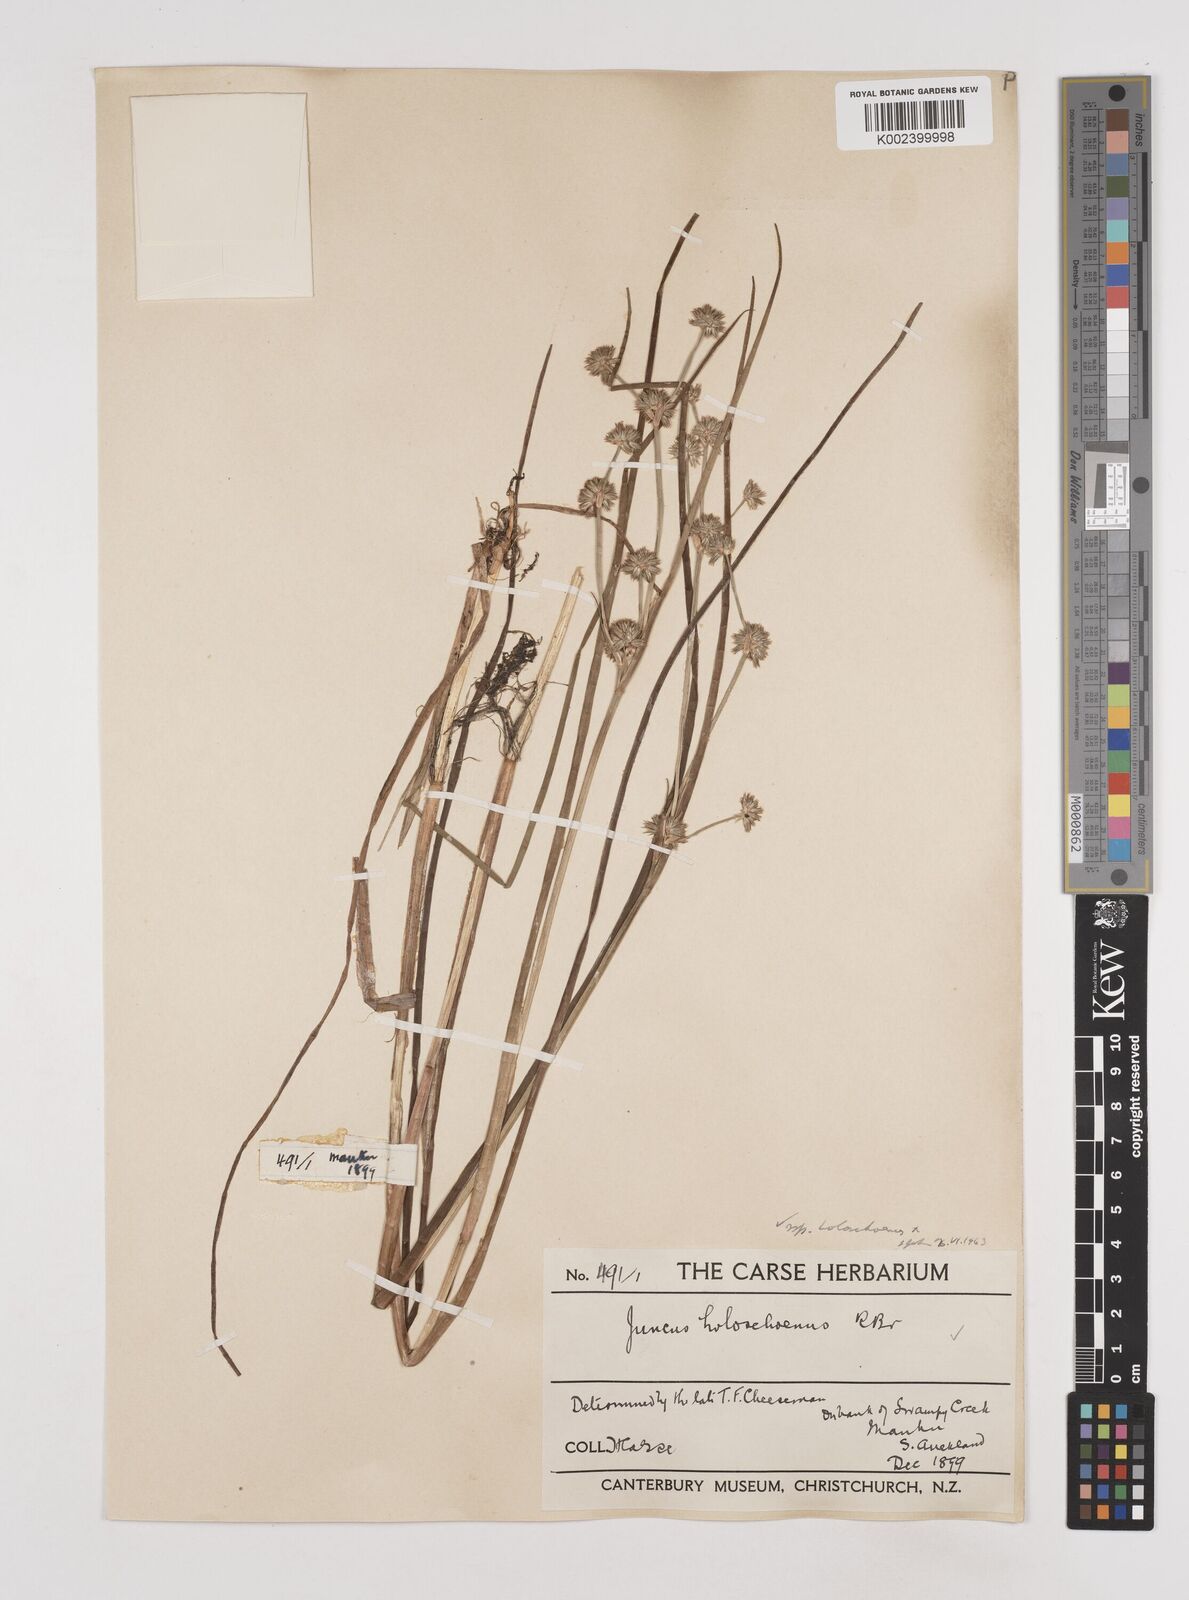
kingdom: Plantae
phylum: Tracheophyta
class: Liliopsida
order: Poales
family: Juncaceae
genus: Juncus
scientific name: Juncus holoschoenus
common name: Joint-leaf rush
